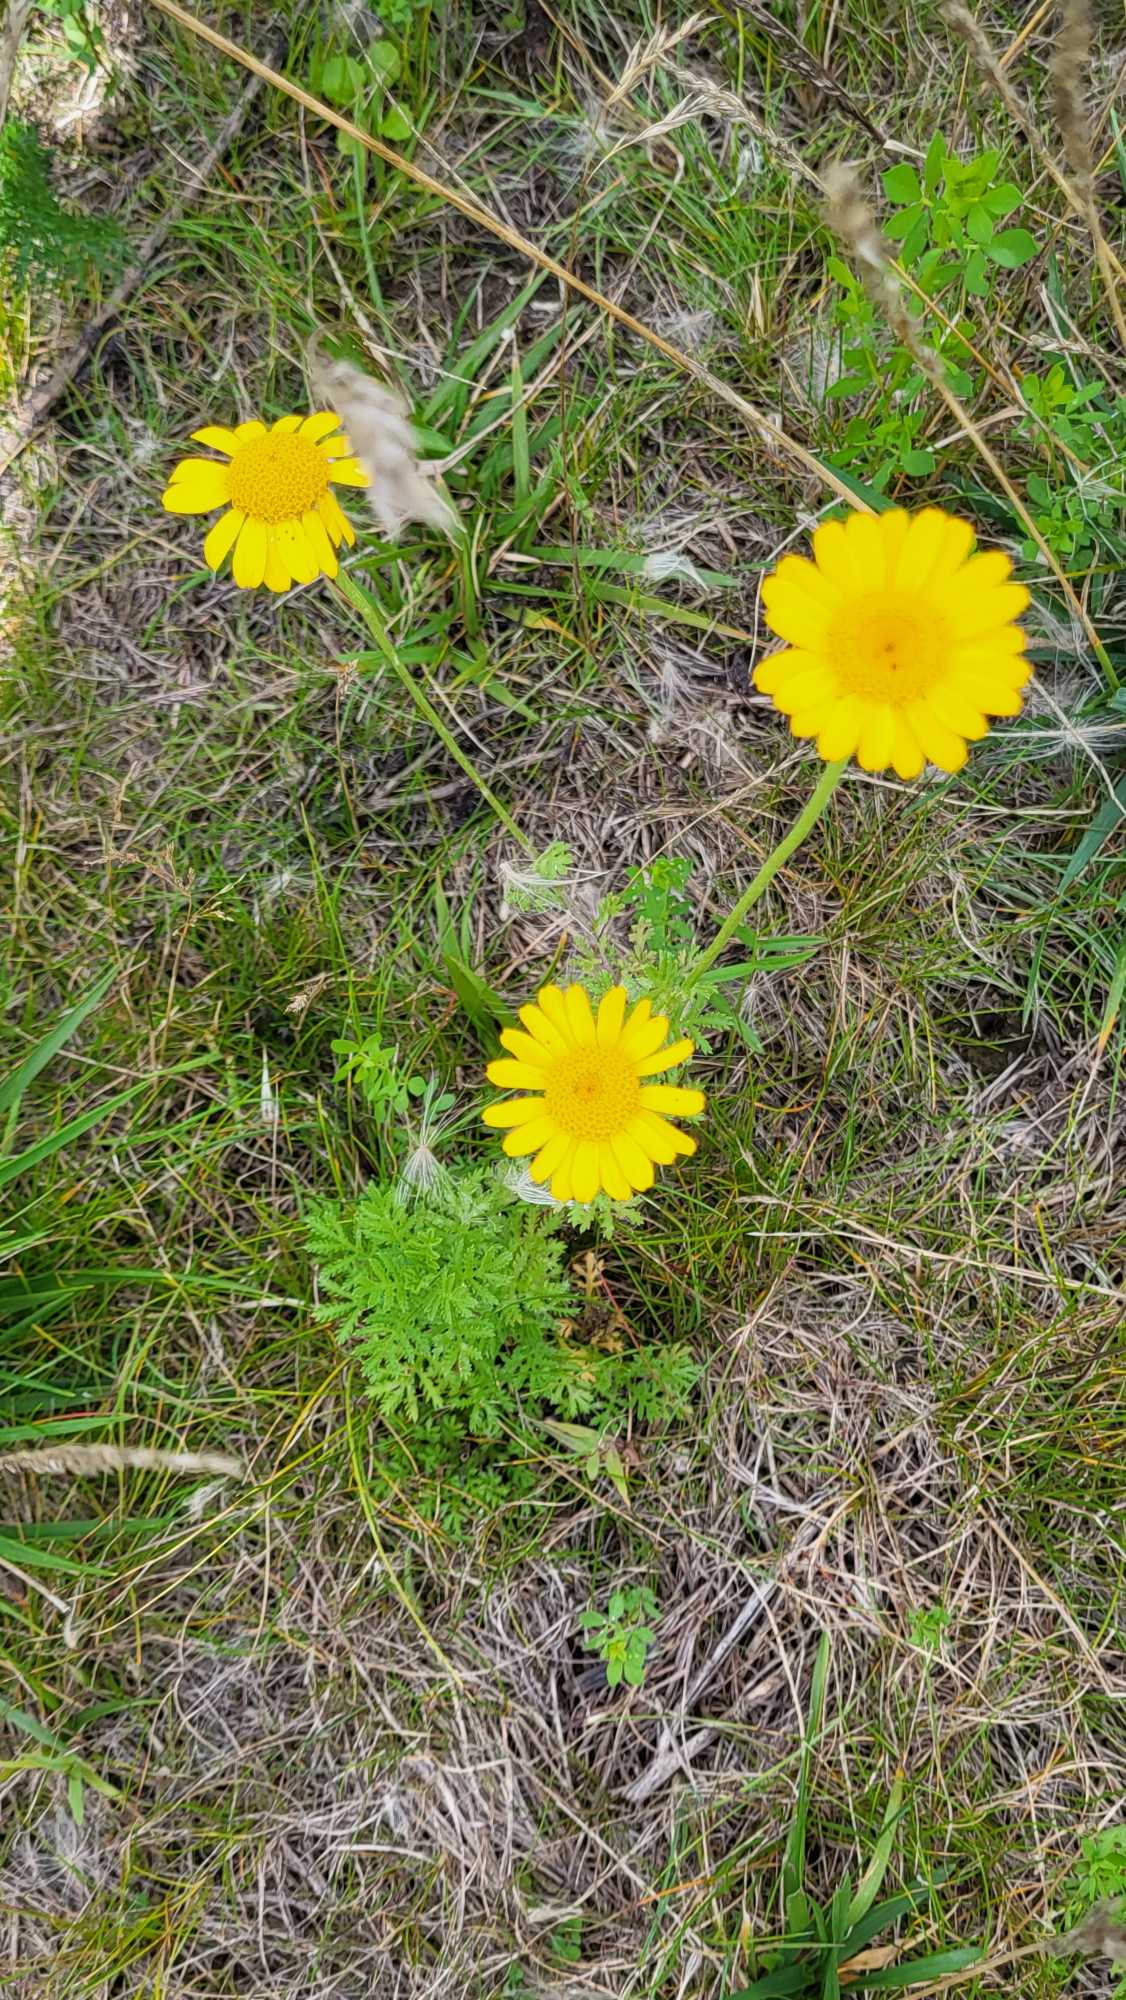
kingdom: Plantae
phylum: Tracheophyta
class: Magnoliopsida
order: Asterales
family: Asteraceae
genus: Cota
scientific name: Cota tinctoria
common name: Farve-gåseurt
